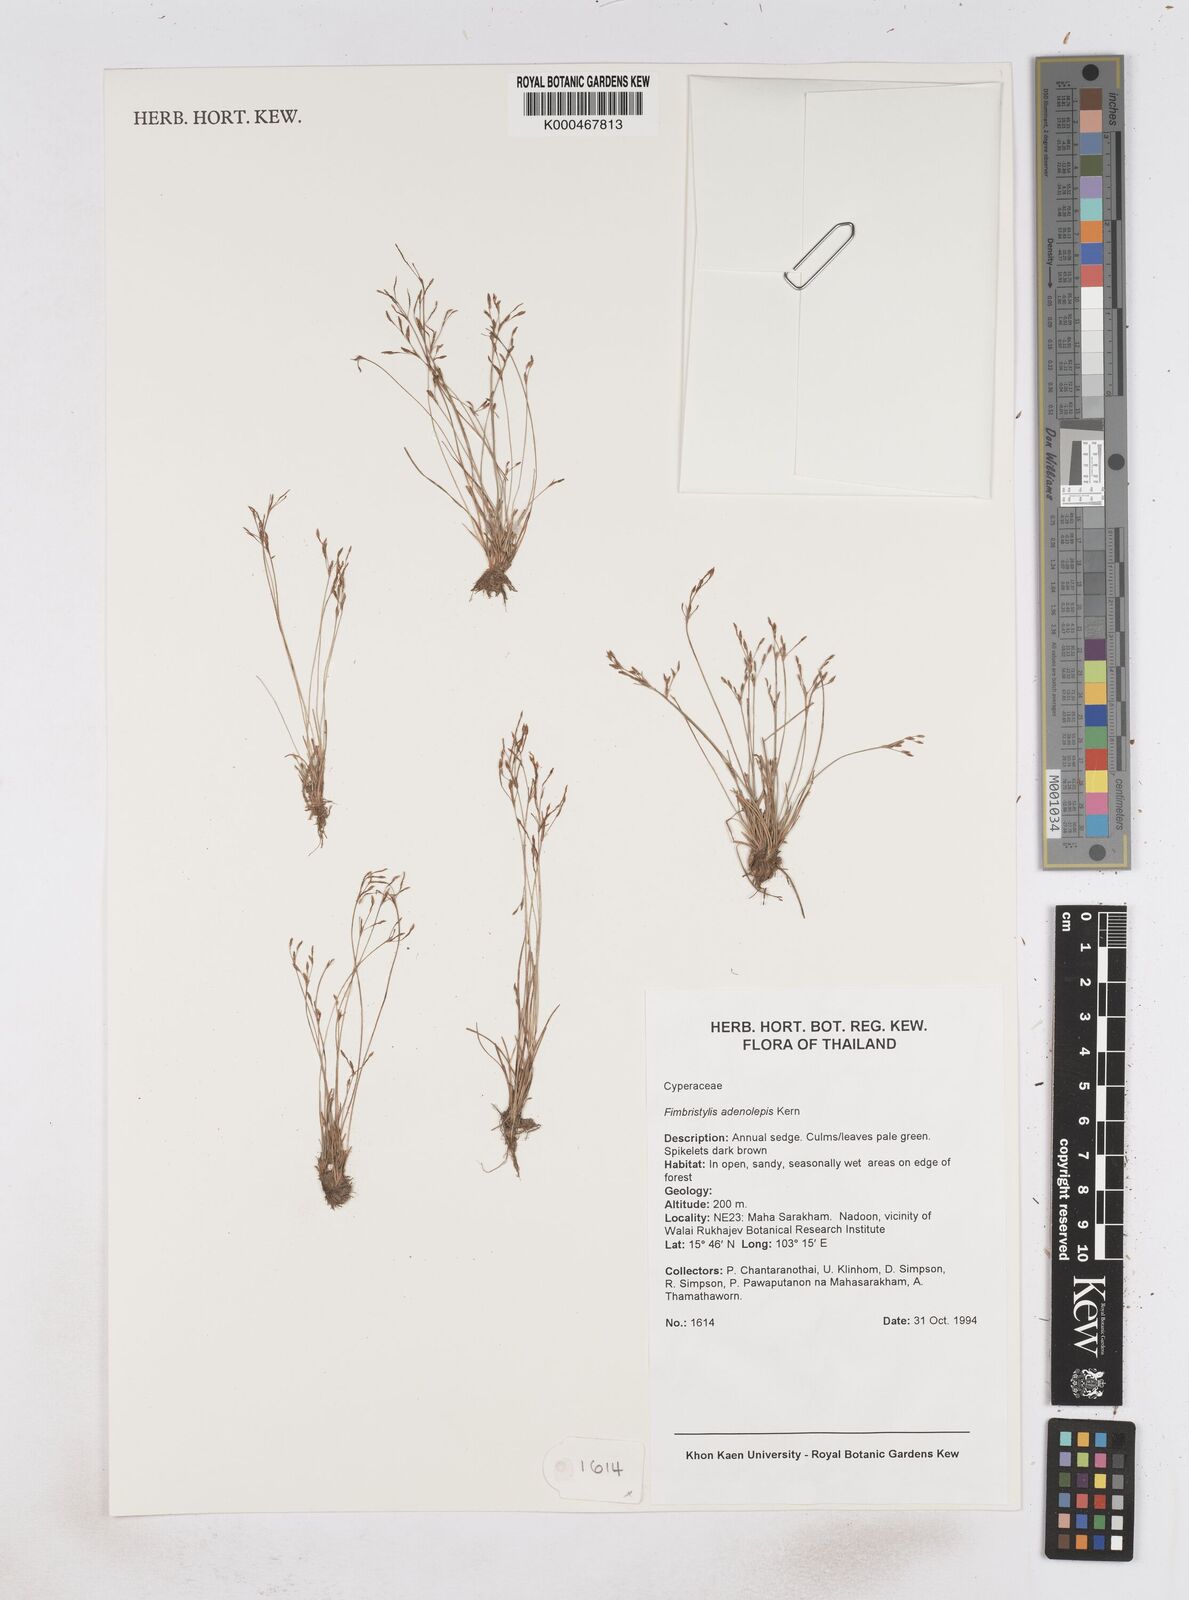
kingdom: Plantae
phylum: Tracheophyta
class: Liliopsida
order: Poales
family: Cyperaceae
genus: Fimbristylis
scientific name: Fimbristylis adenolepis
